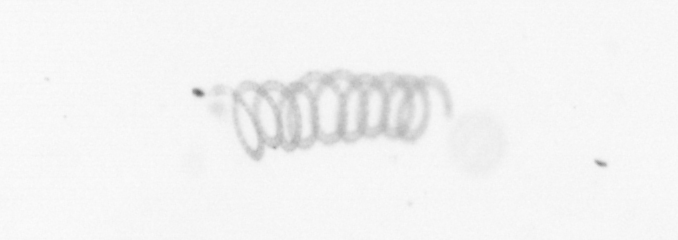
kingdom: Chromista
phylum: Ochrophyta
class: Bacillariophyceae
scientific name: Bacillariophyceae
